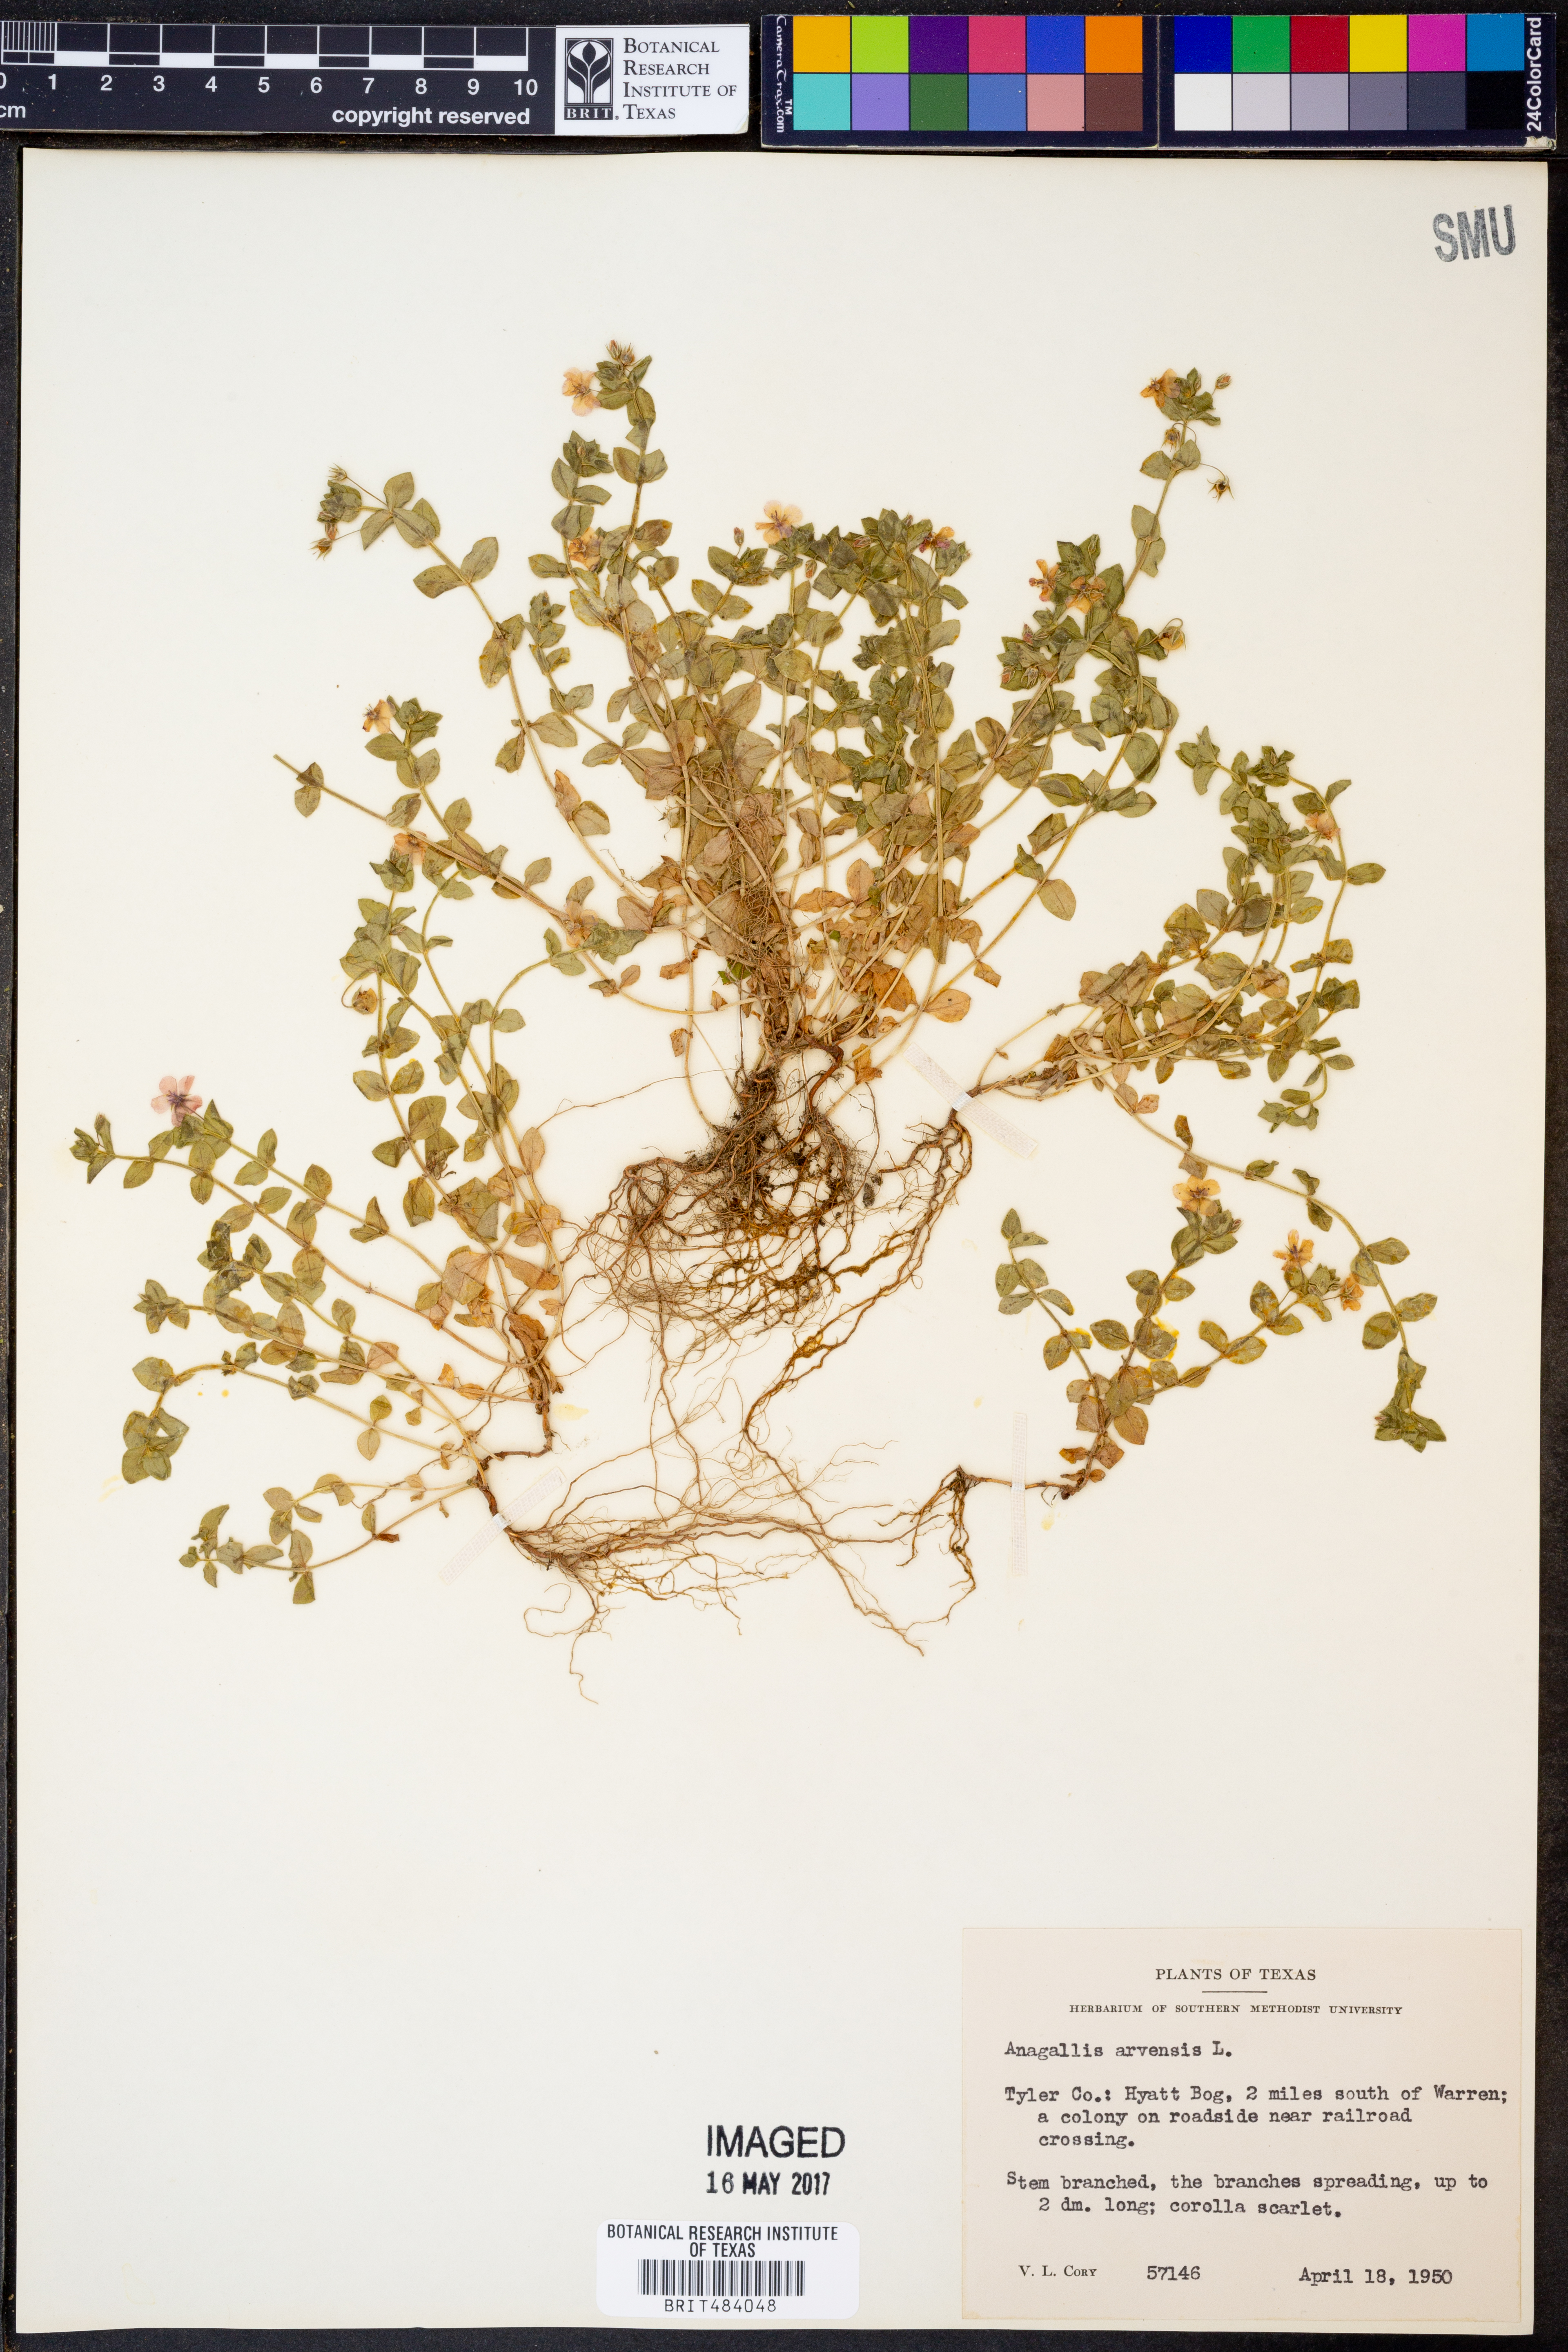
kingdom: Plantae
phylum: Tracheophyta
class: Magnoliopsida
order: Ericales
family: Primulaceae
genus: Lysimachia
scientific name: Lysimachia arvensis
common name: Scarlet pimpernel
